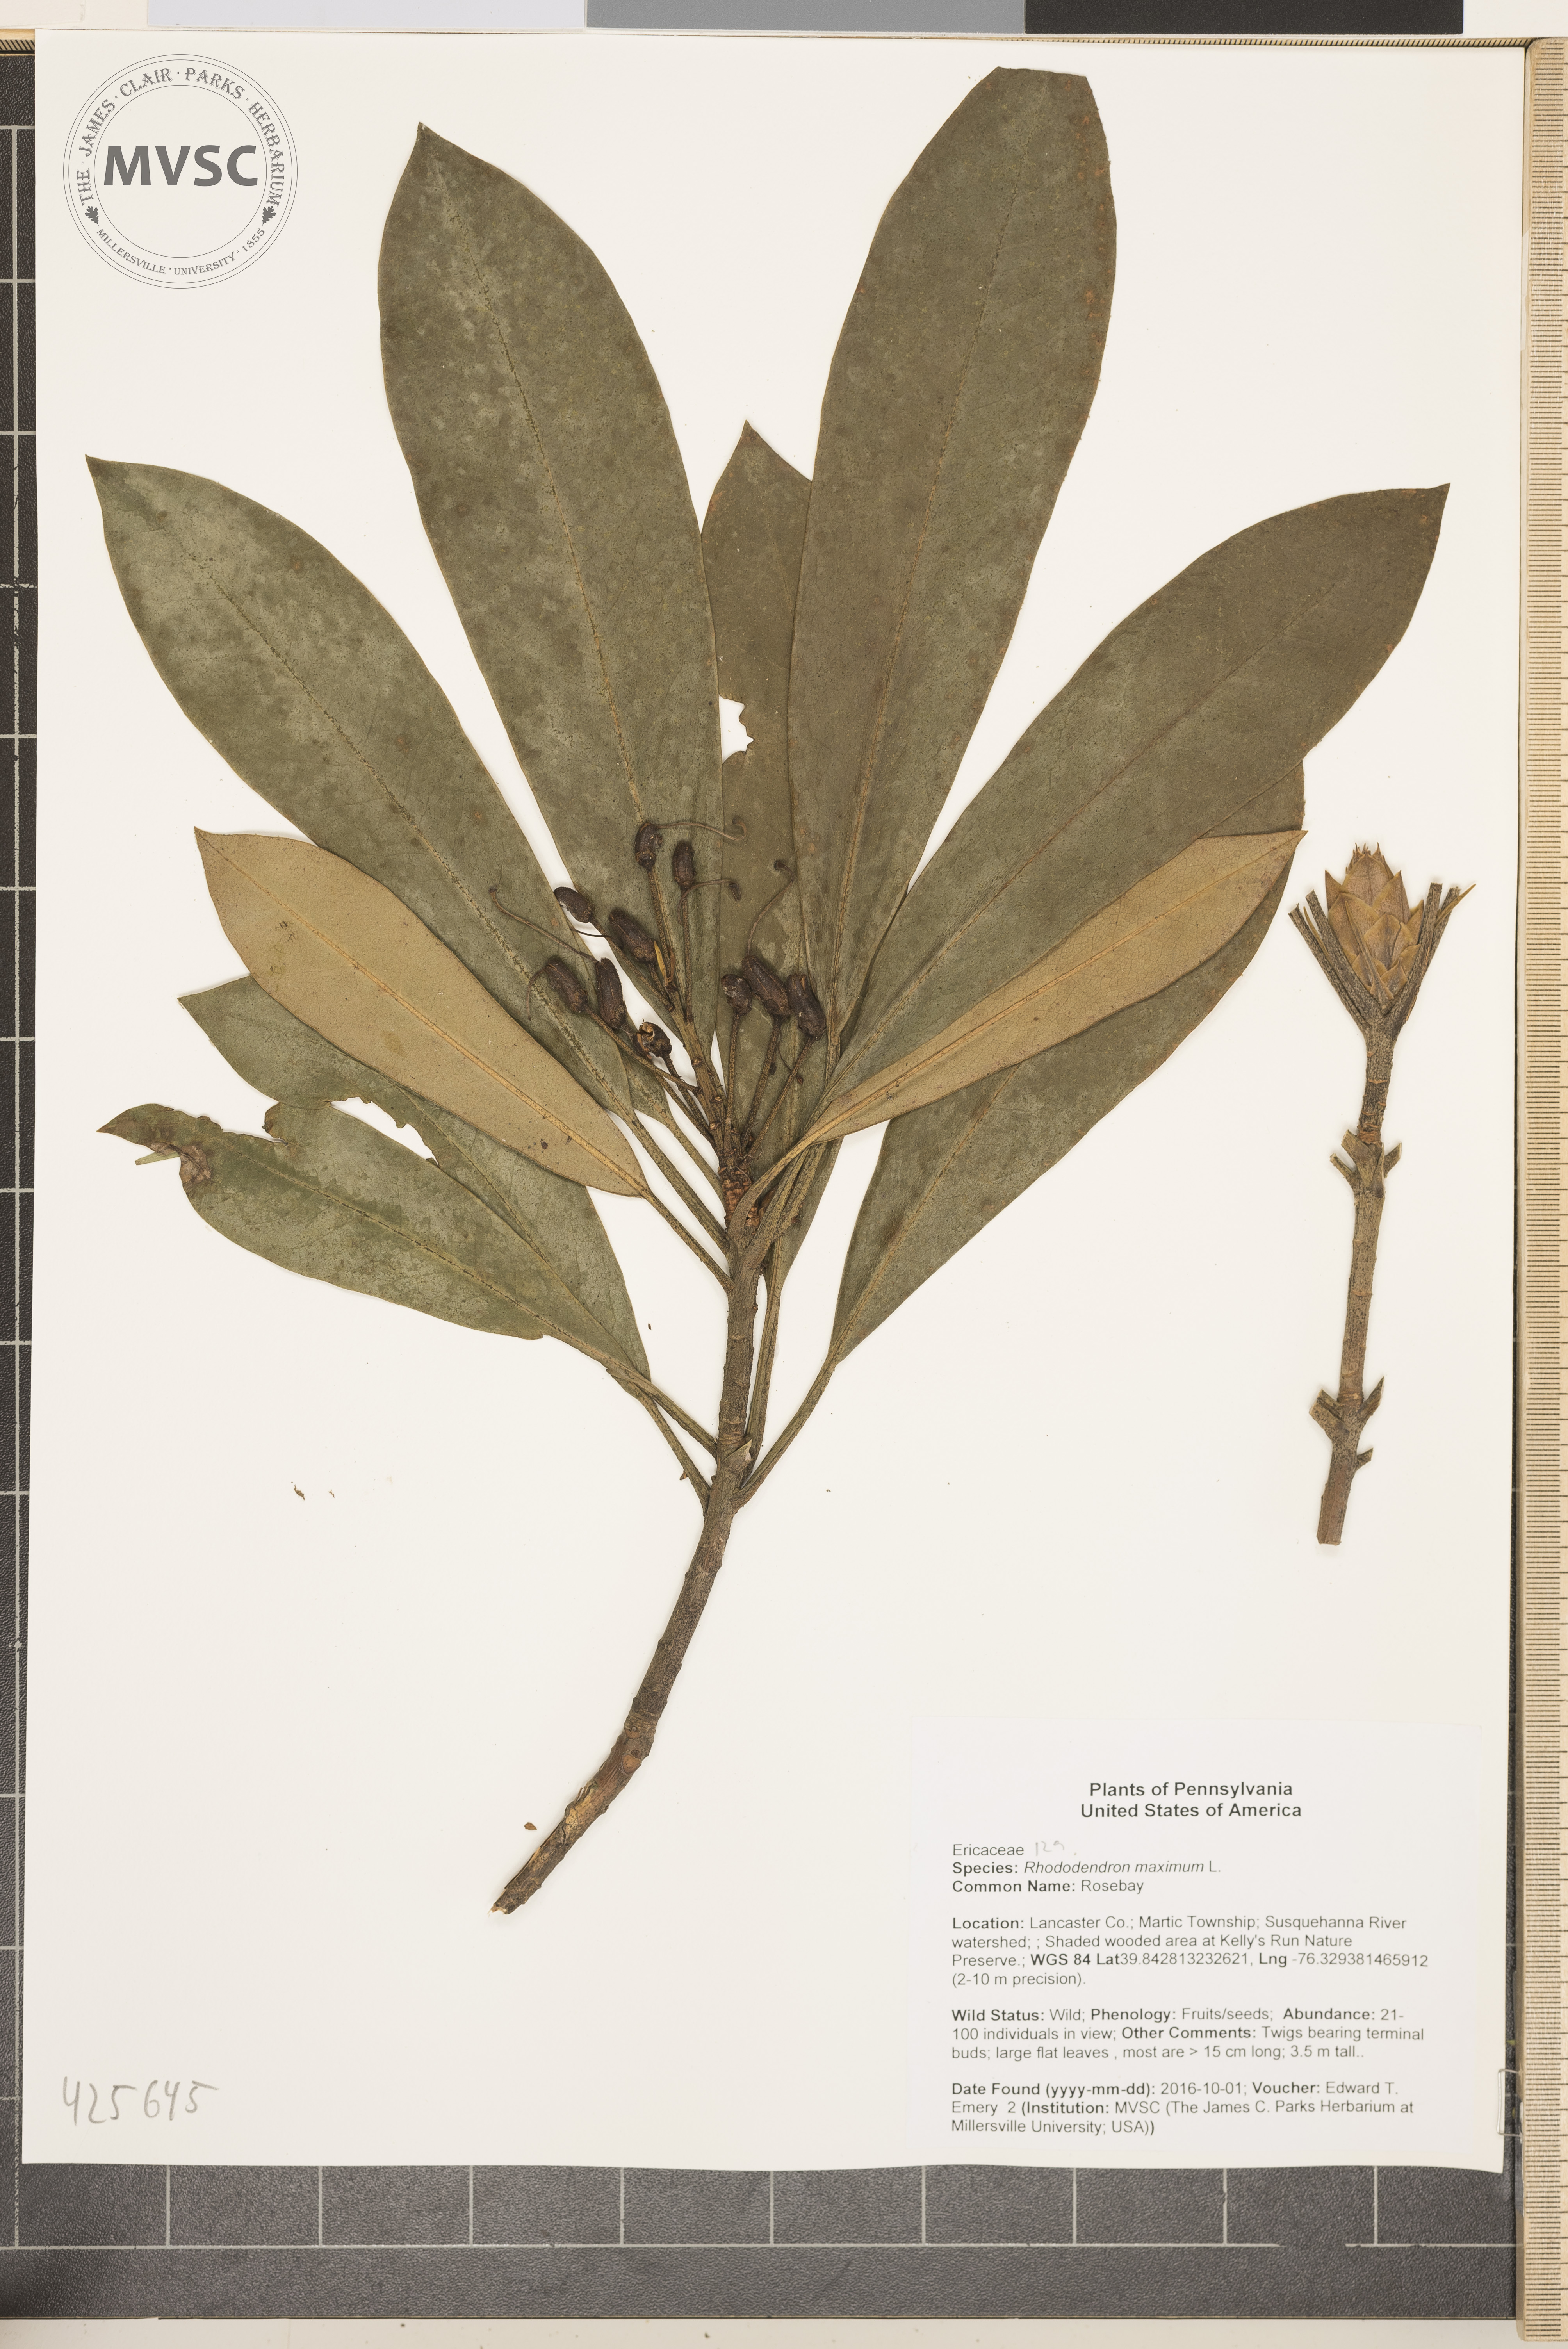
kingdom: Plantae
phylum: Tracheophyta
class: Magnoliopsida
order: Ericales
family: Ericaceae
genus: Rhododendron
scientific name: Rhododendron maximum
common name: Rosebay
